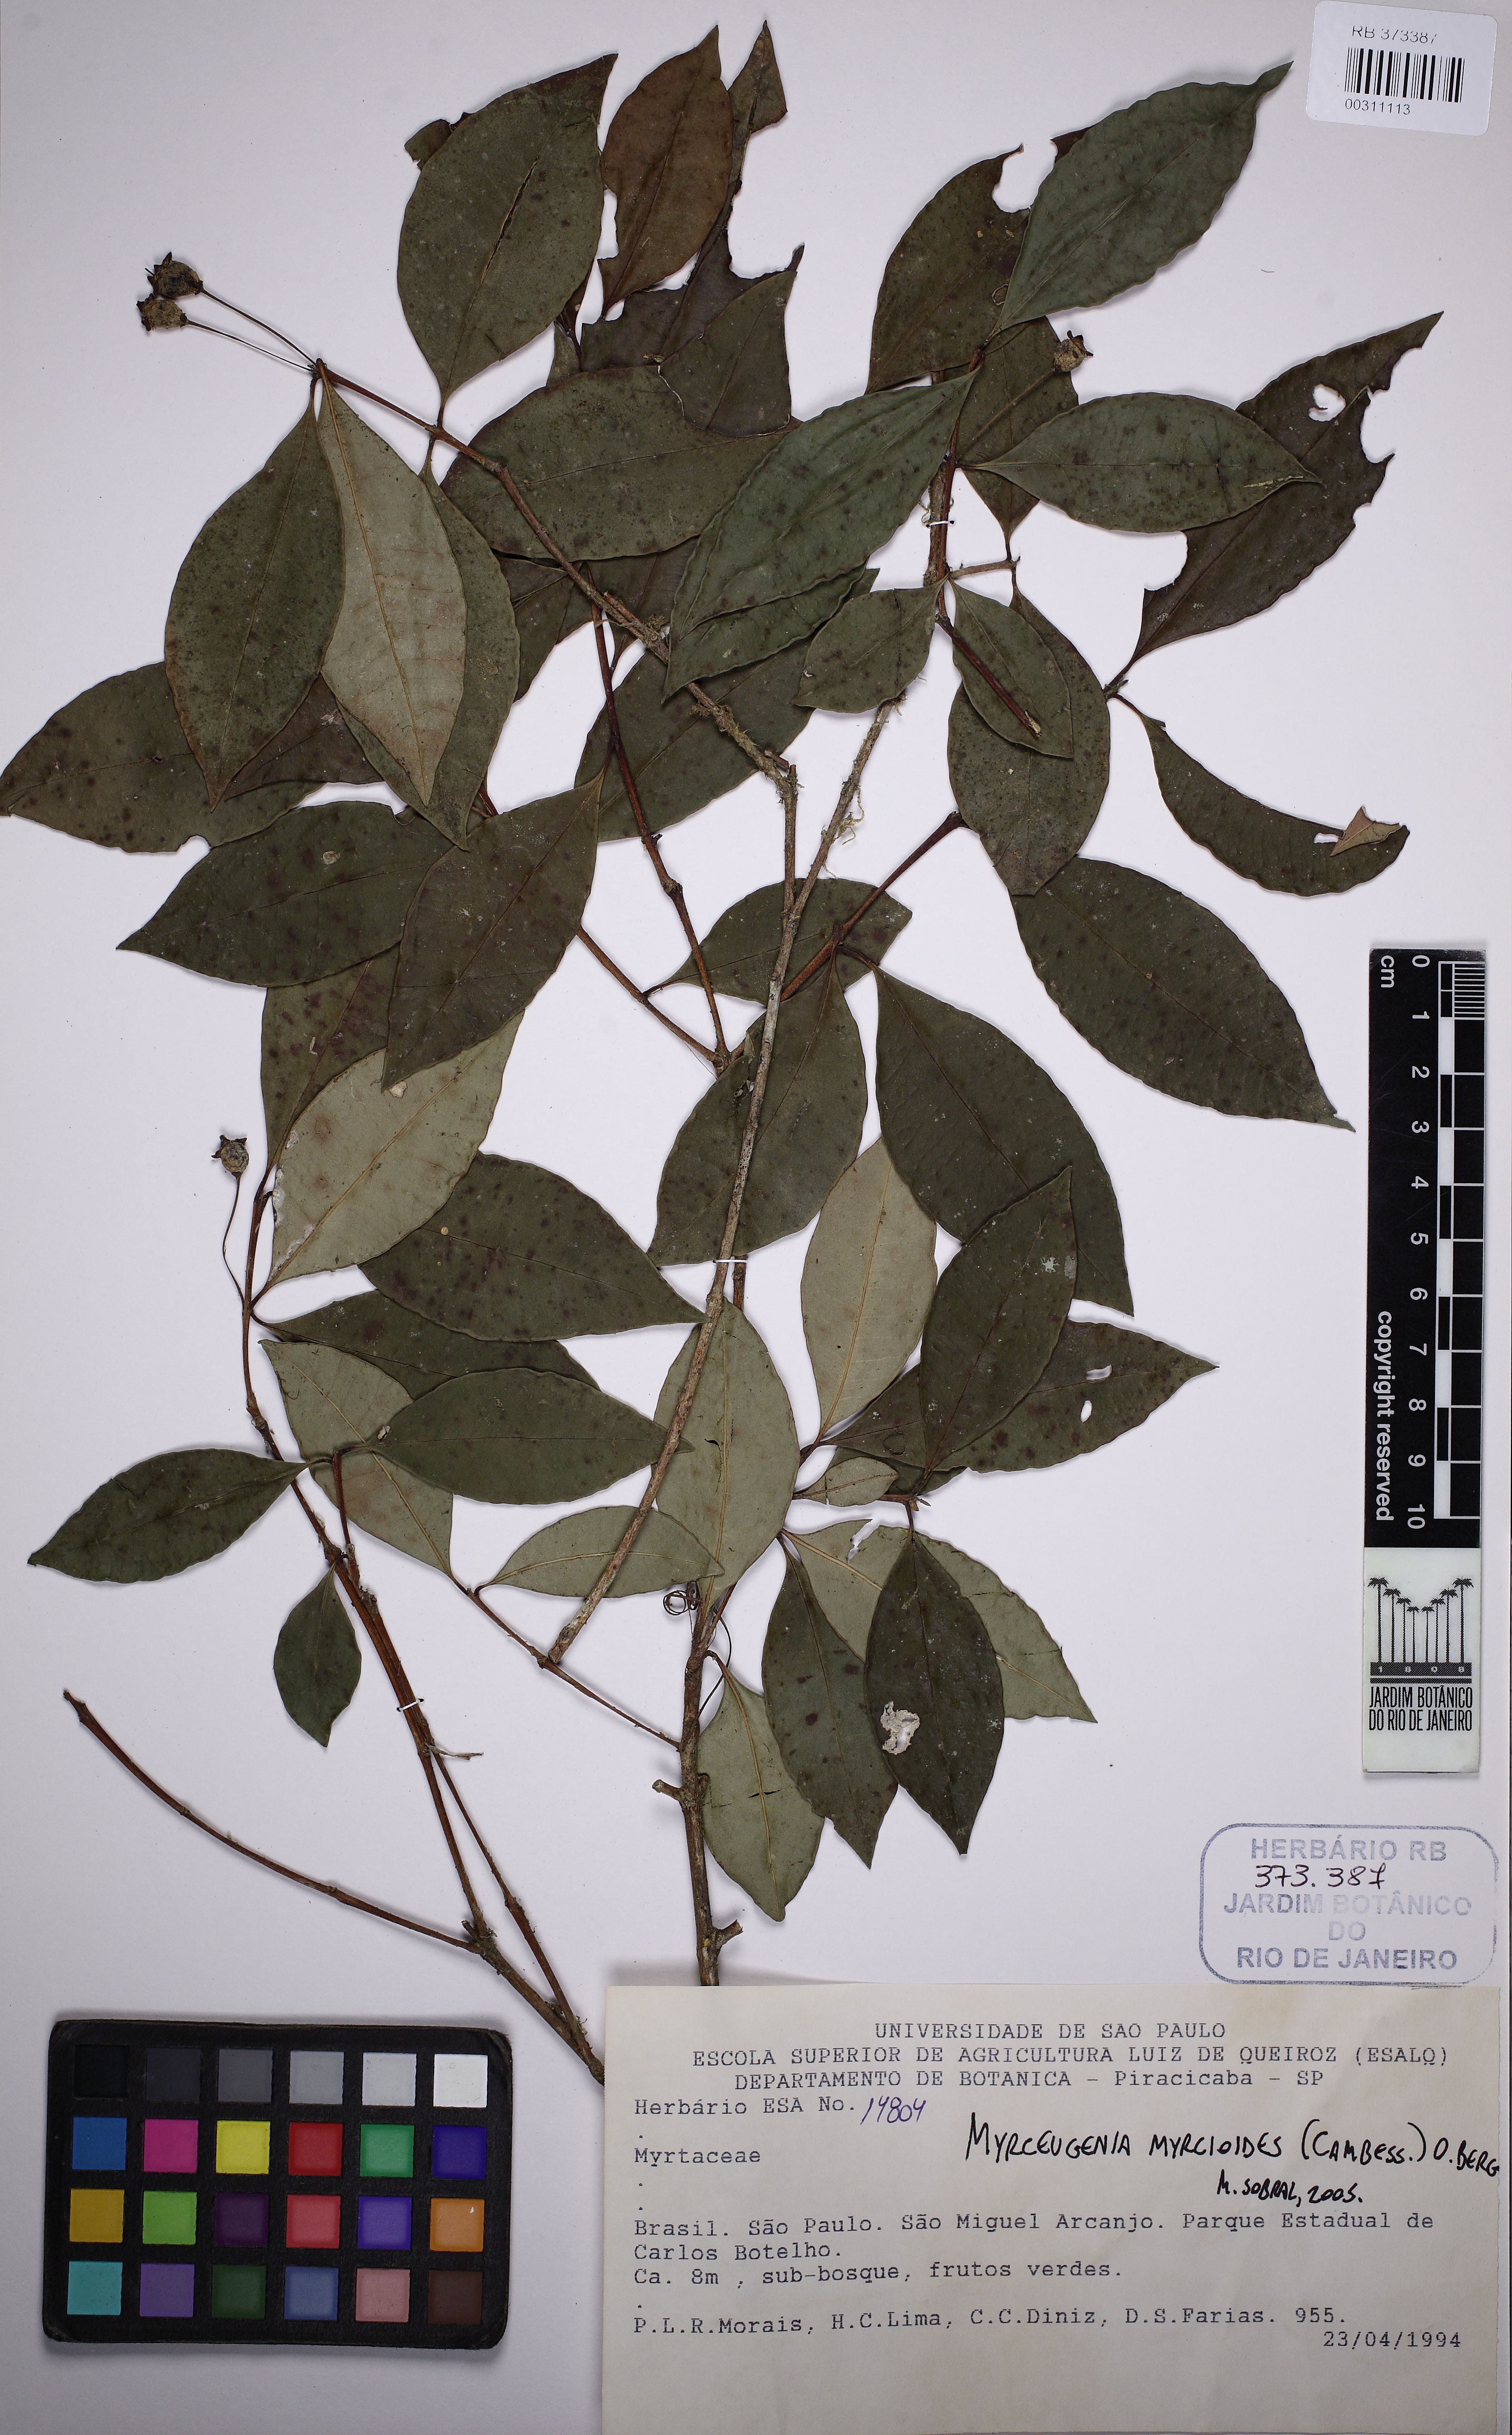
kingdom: Plantae
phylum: Tracheophyta
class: Magnoliopsida
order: Myrtales
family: Myrtaceae
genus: Myrceugenia
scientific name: Myrceugenia scutellata
